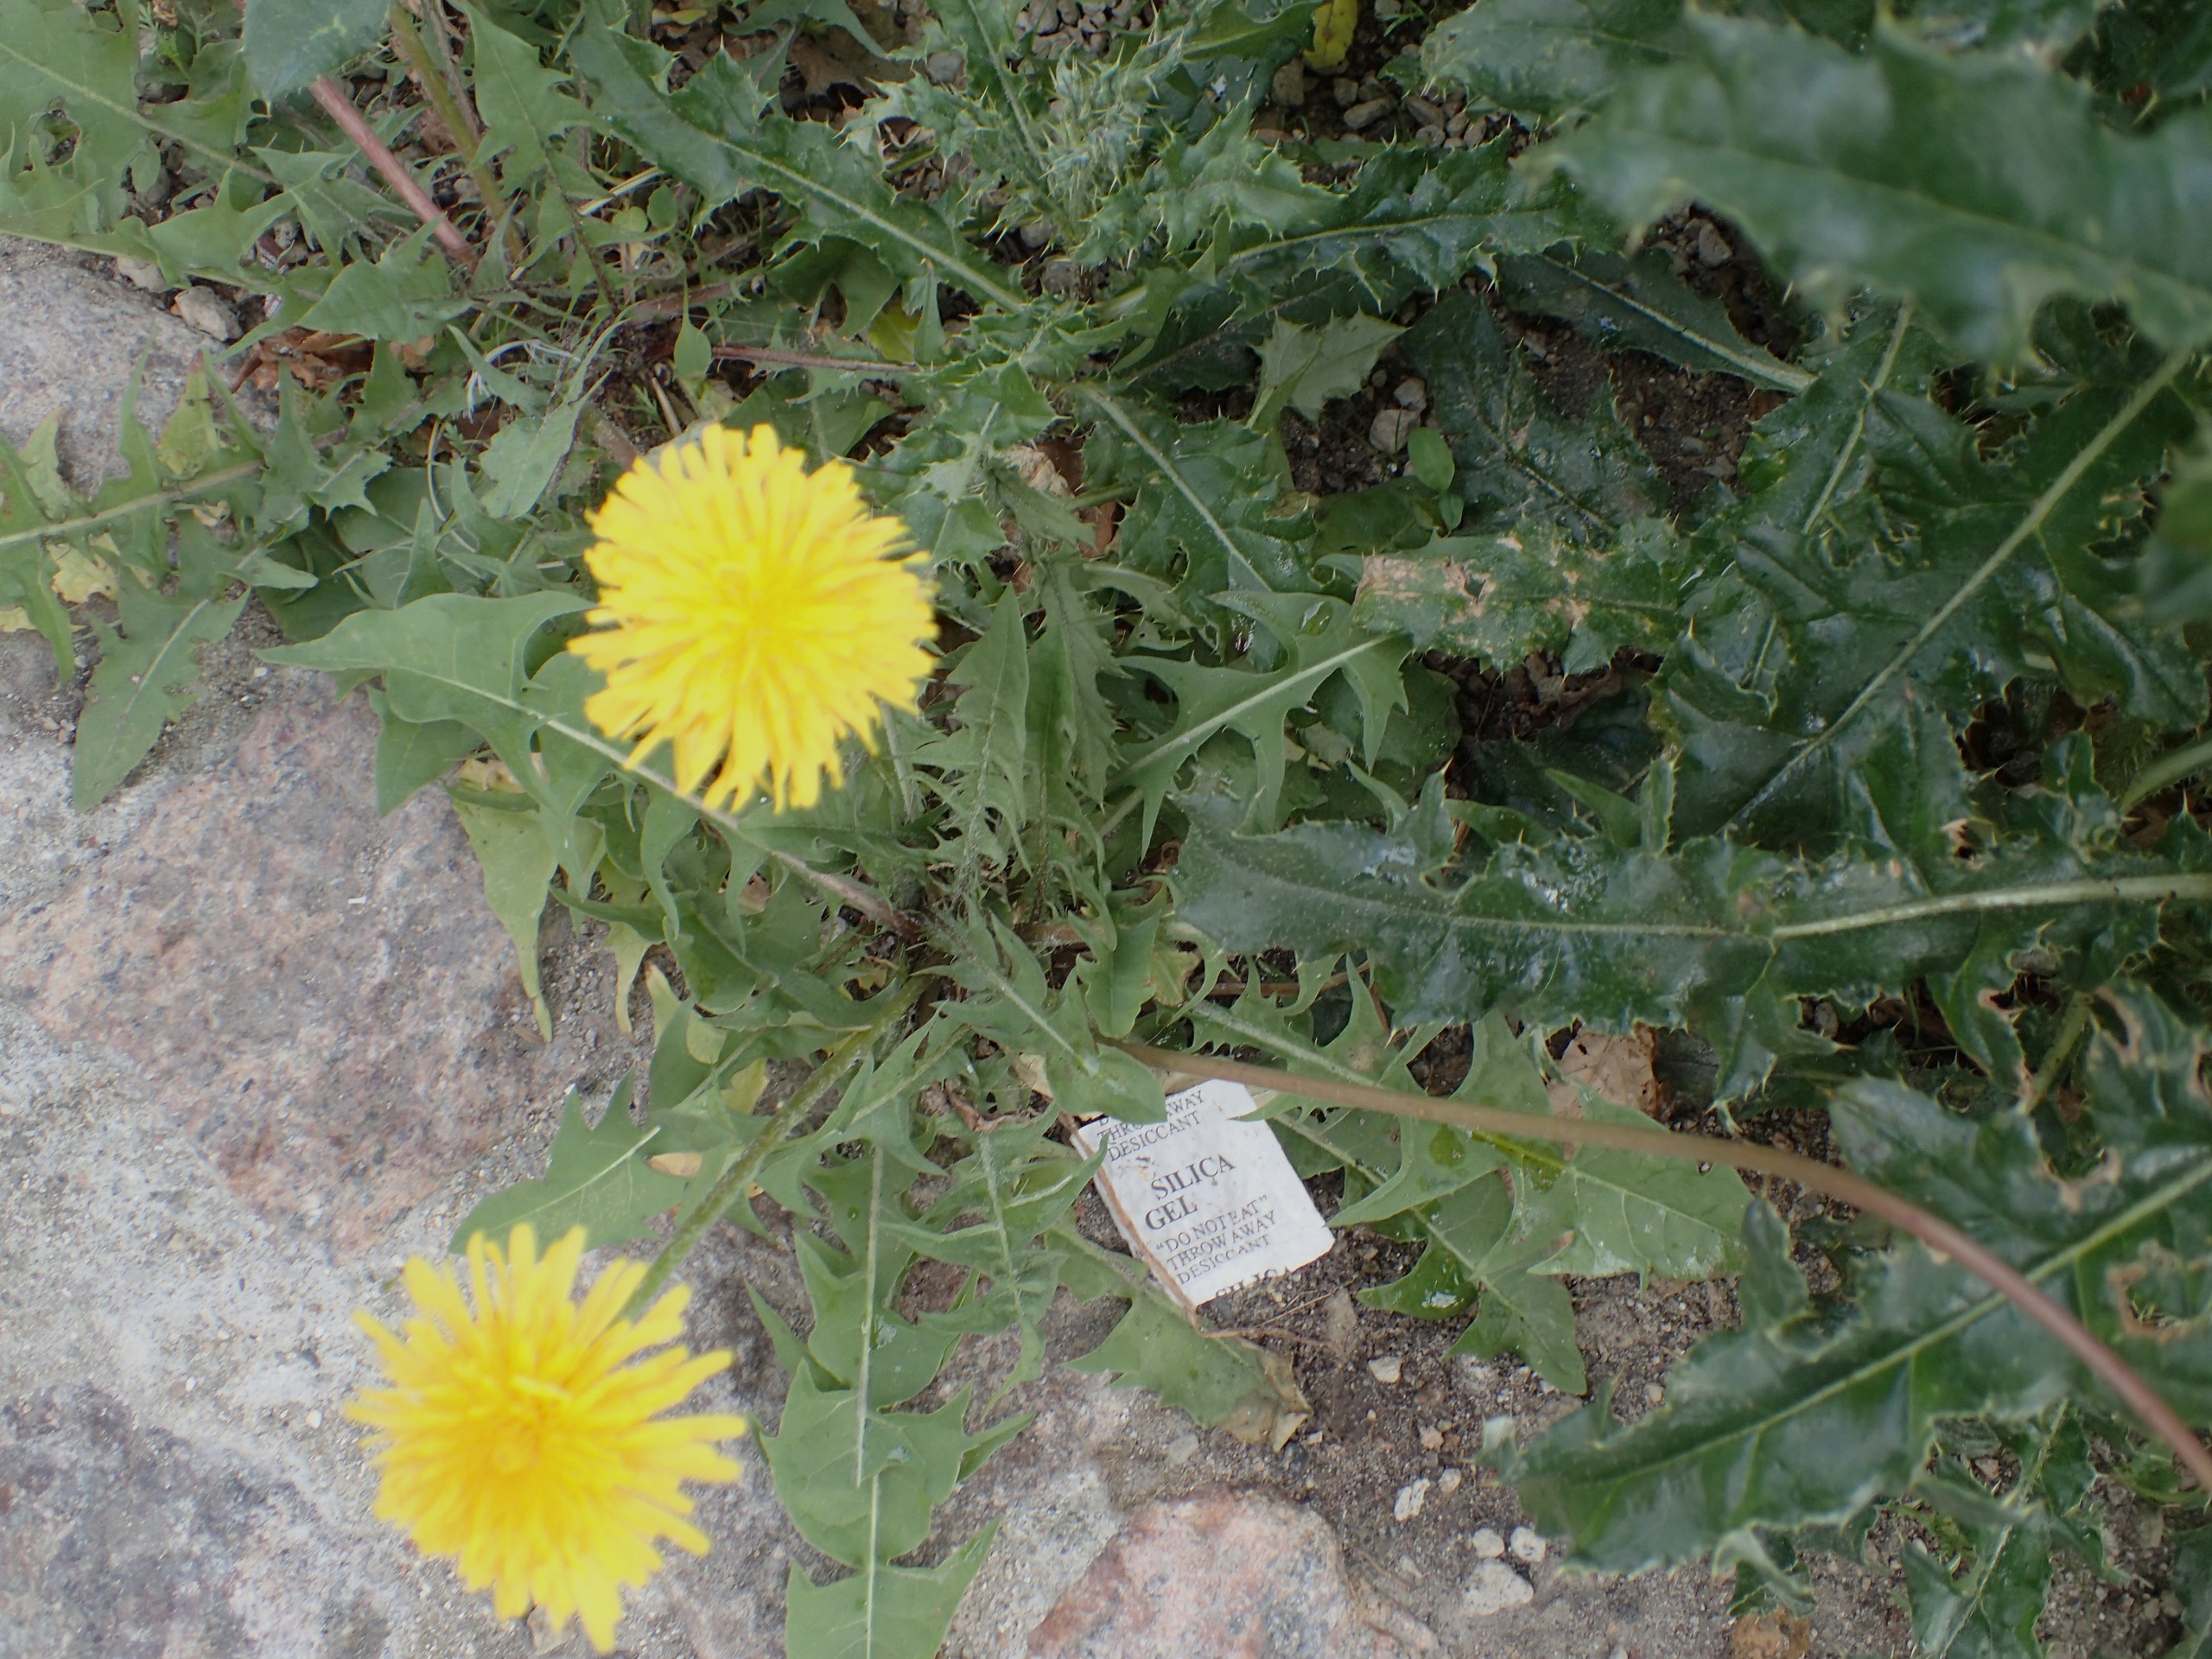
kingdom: Plantae
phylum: Tracheophyta
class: Magnoliopsida
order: Asterales
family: Asteraceae
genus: Taraxacum
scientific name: Taraxacum
